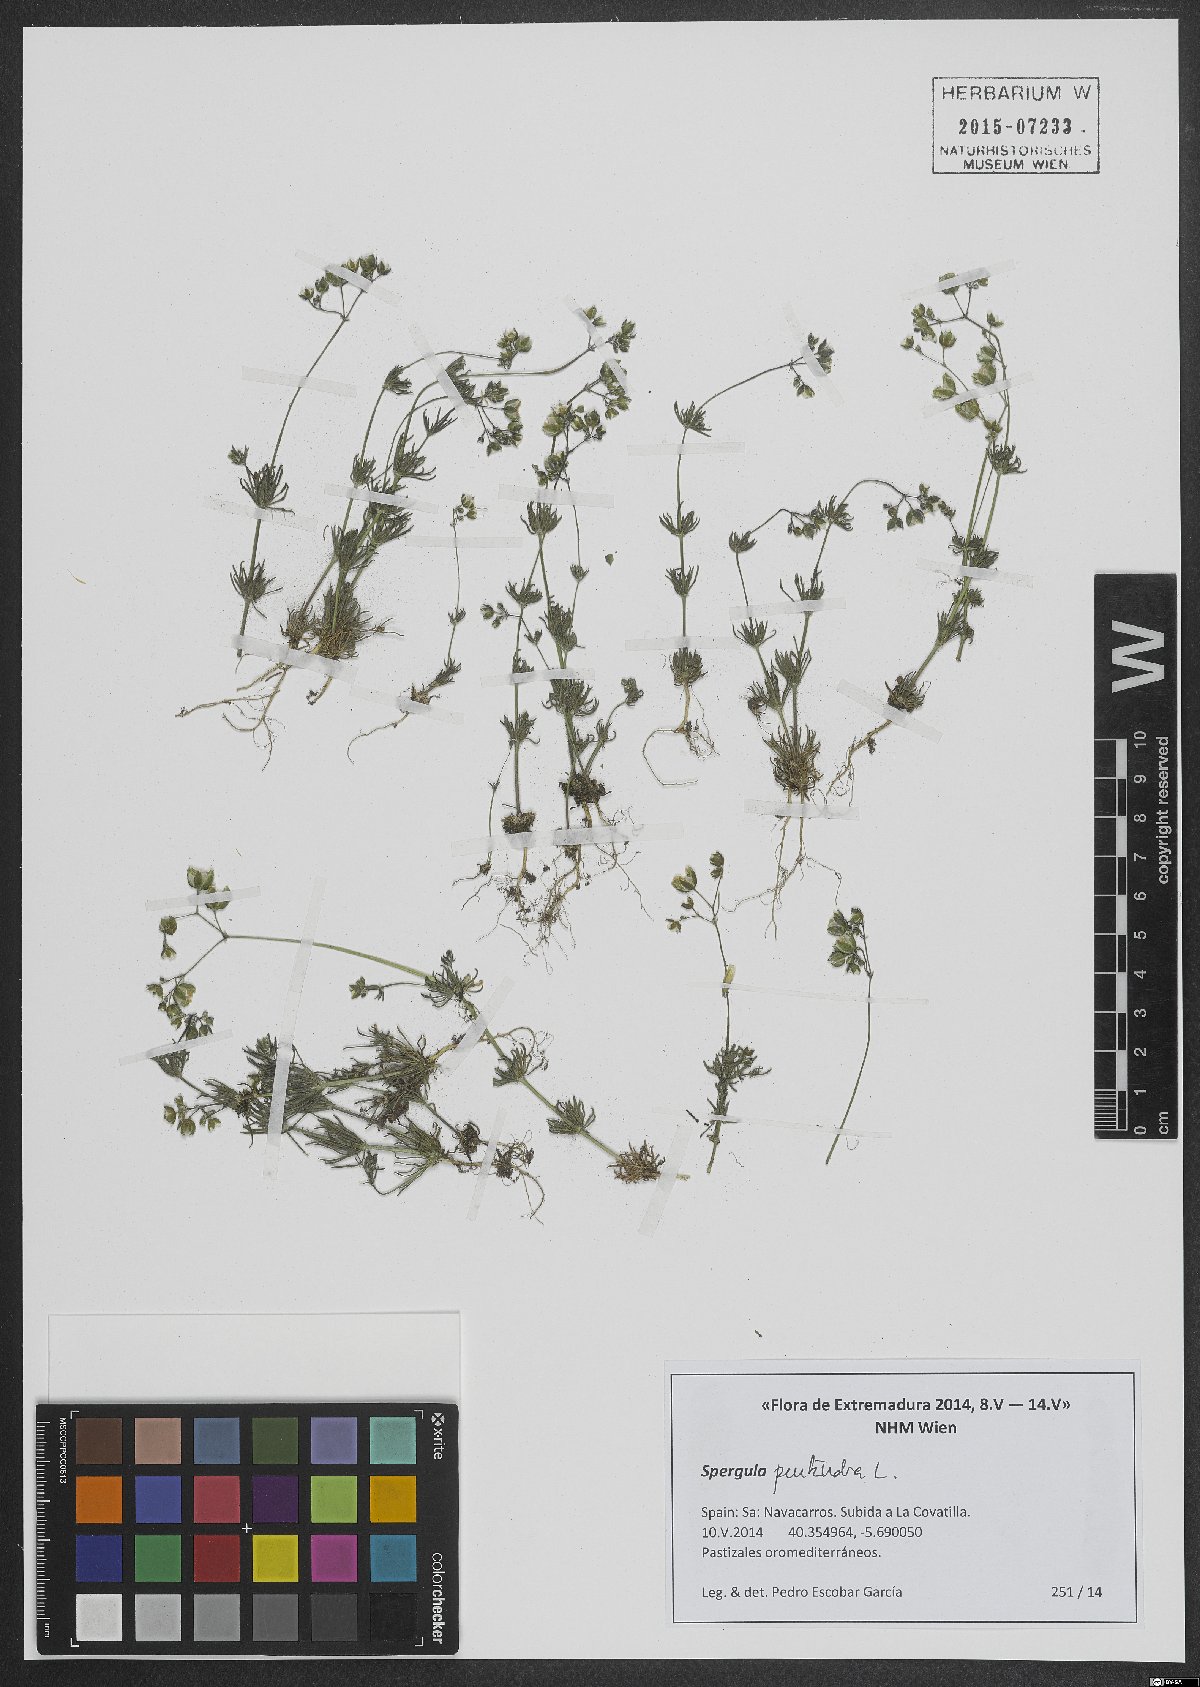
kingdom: Plantae
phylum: Tracheophyta
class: Magnoliopsida
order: Caryophyllales
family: Caryophyllaceae
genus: Spergula
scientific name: Spergula pentandra
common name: Wingstem spurry
